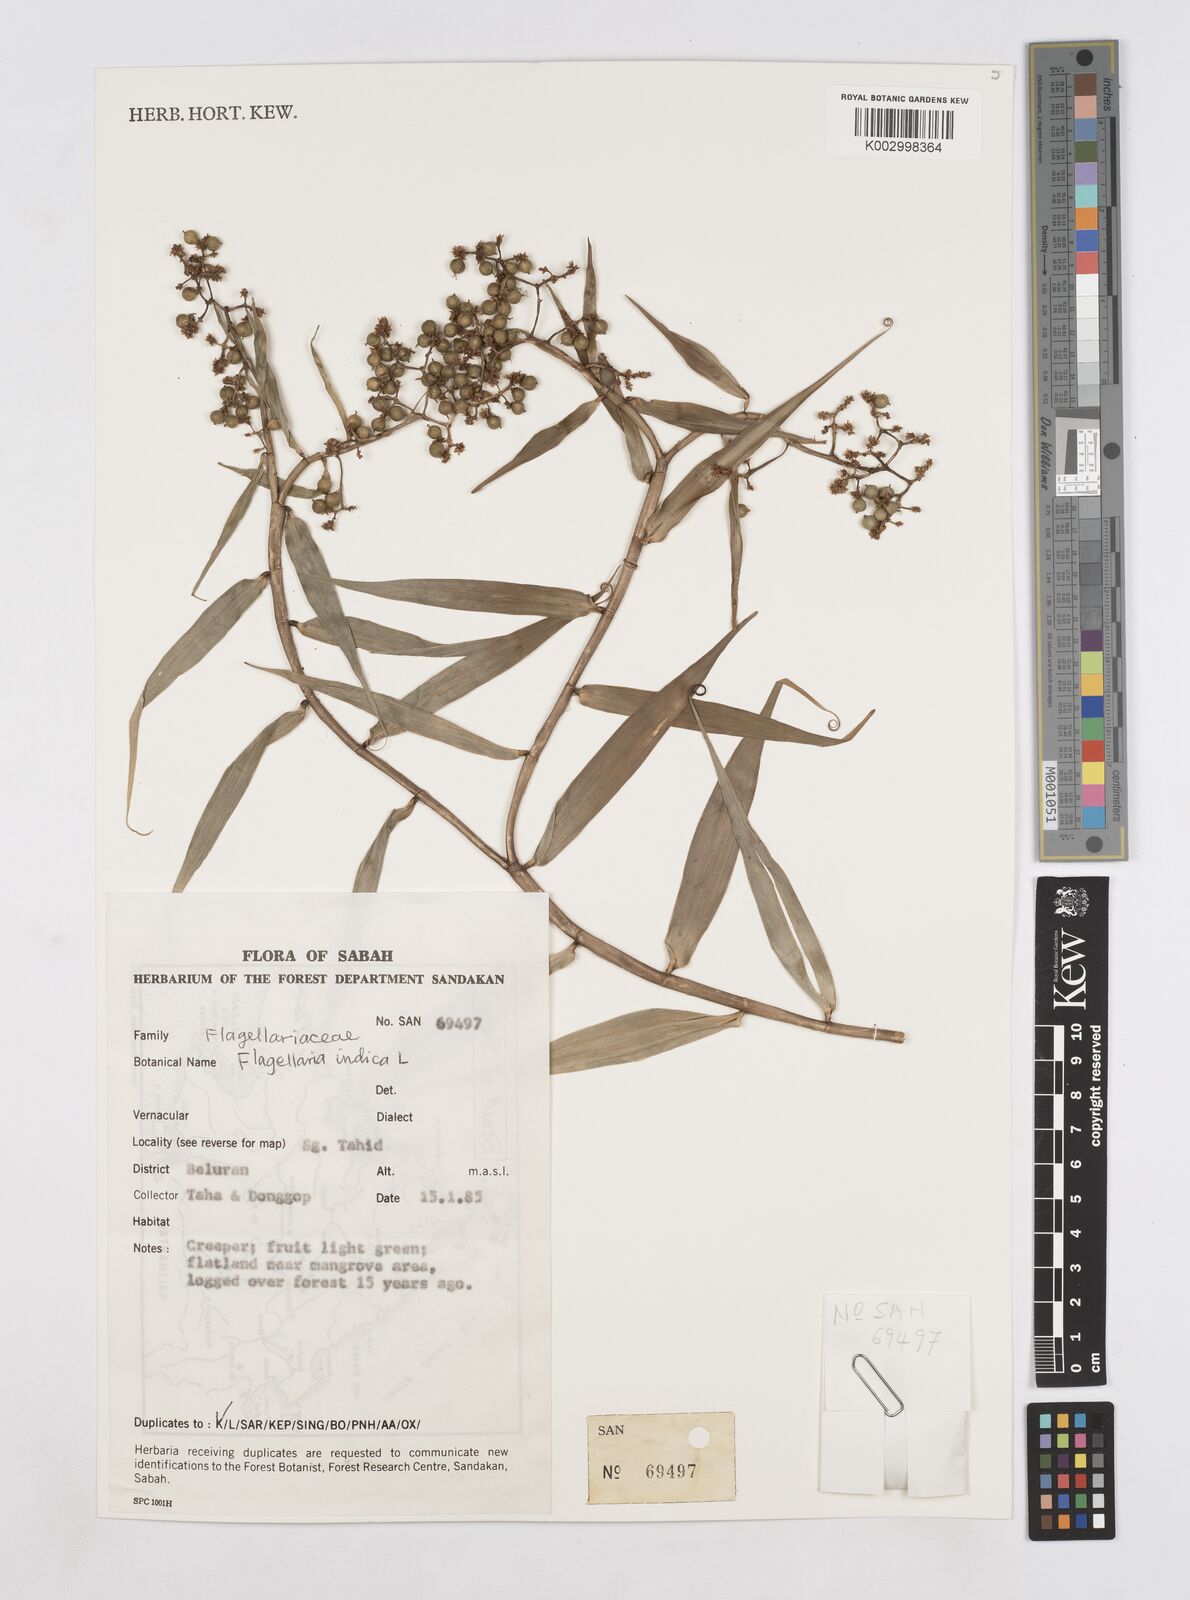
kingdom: Plantae
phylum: Tracheophyta
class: Liliopsida
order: Poales
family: Flagellariaceae
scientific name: Flagellariaceae
